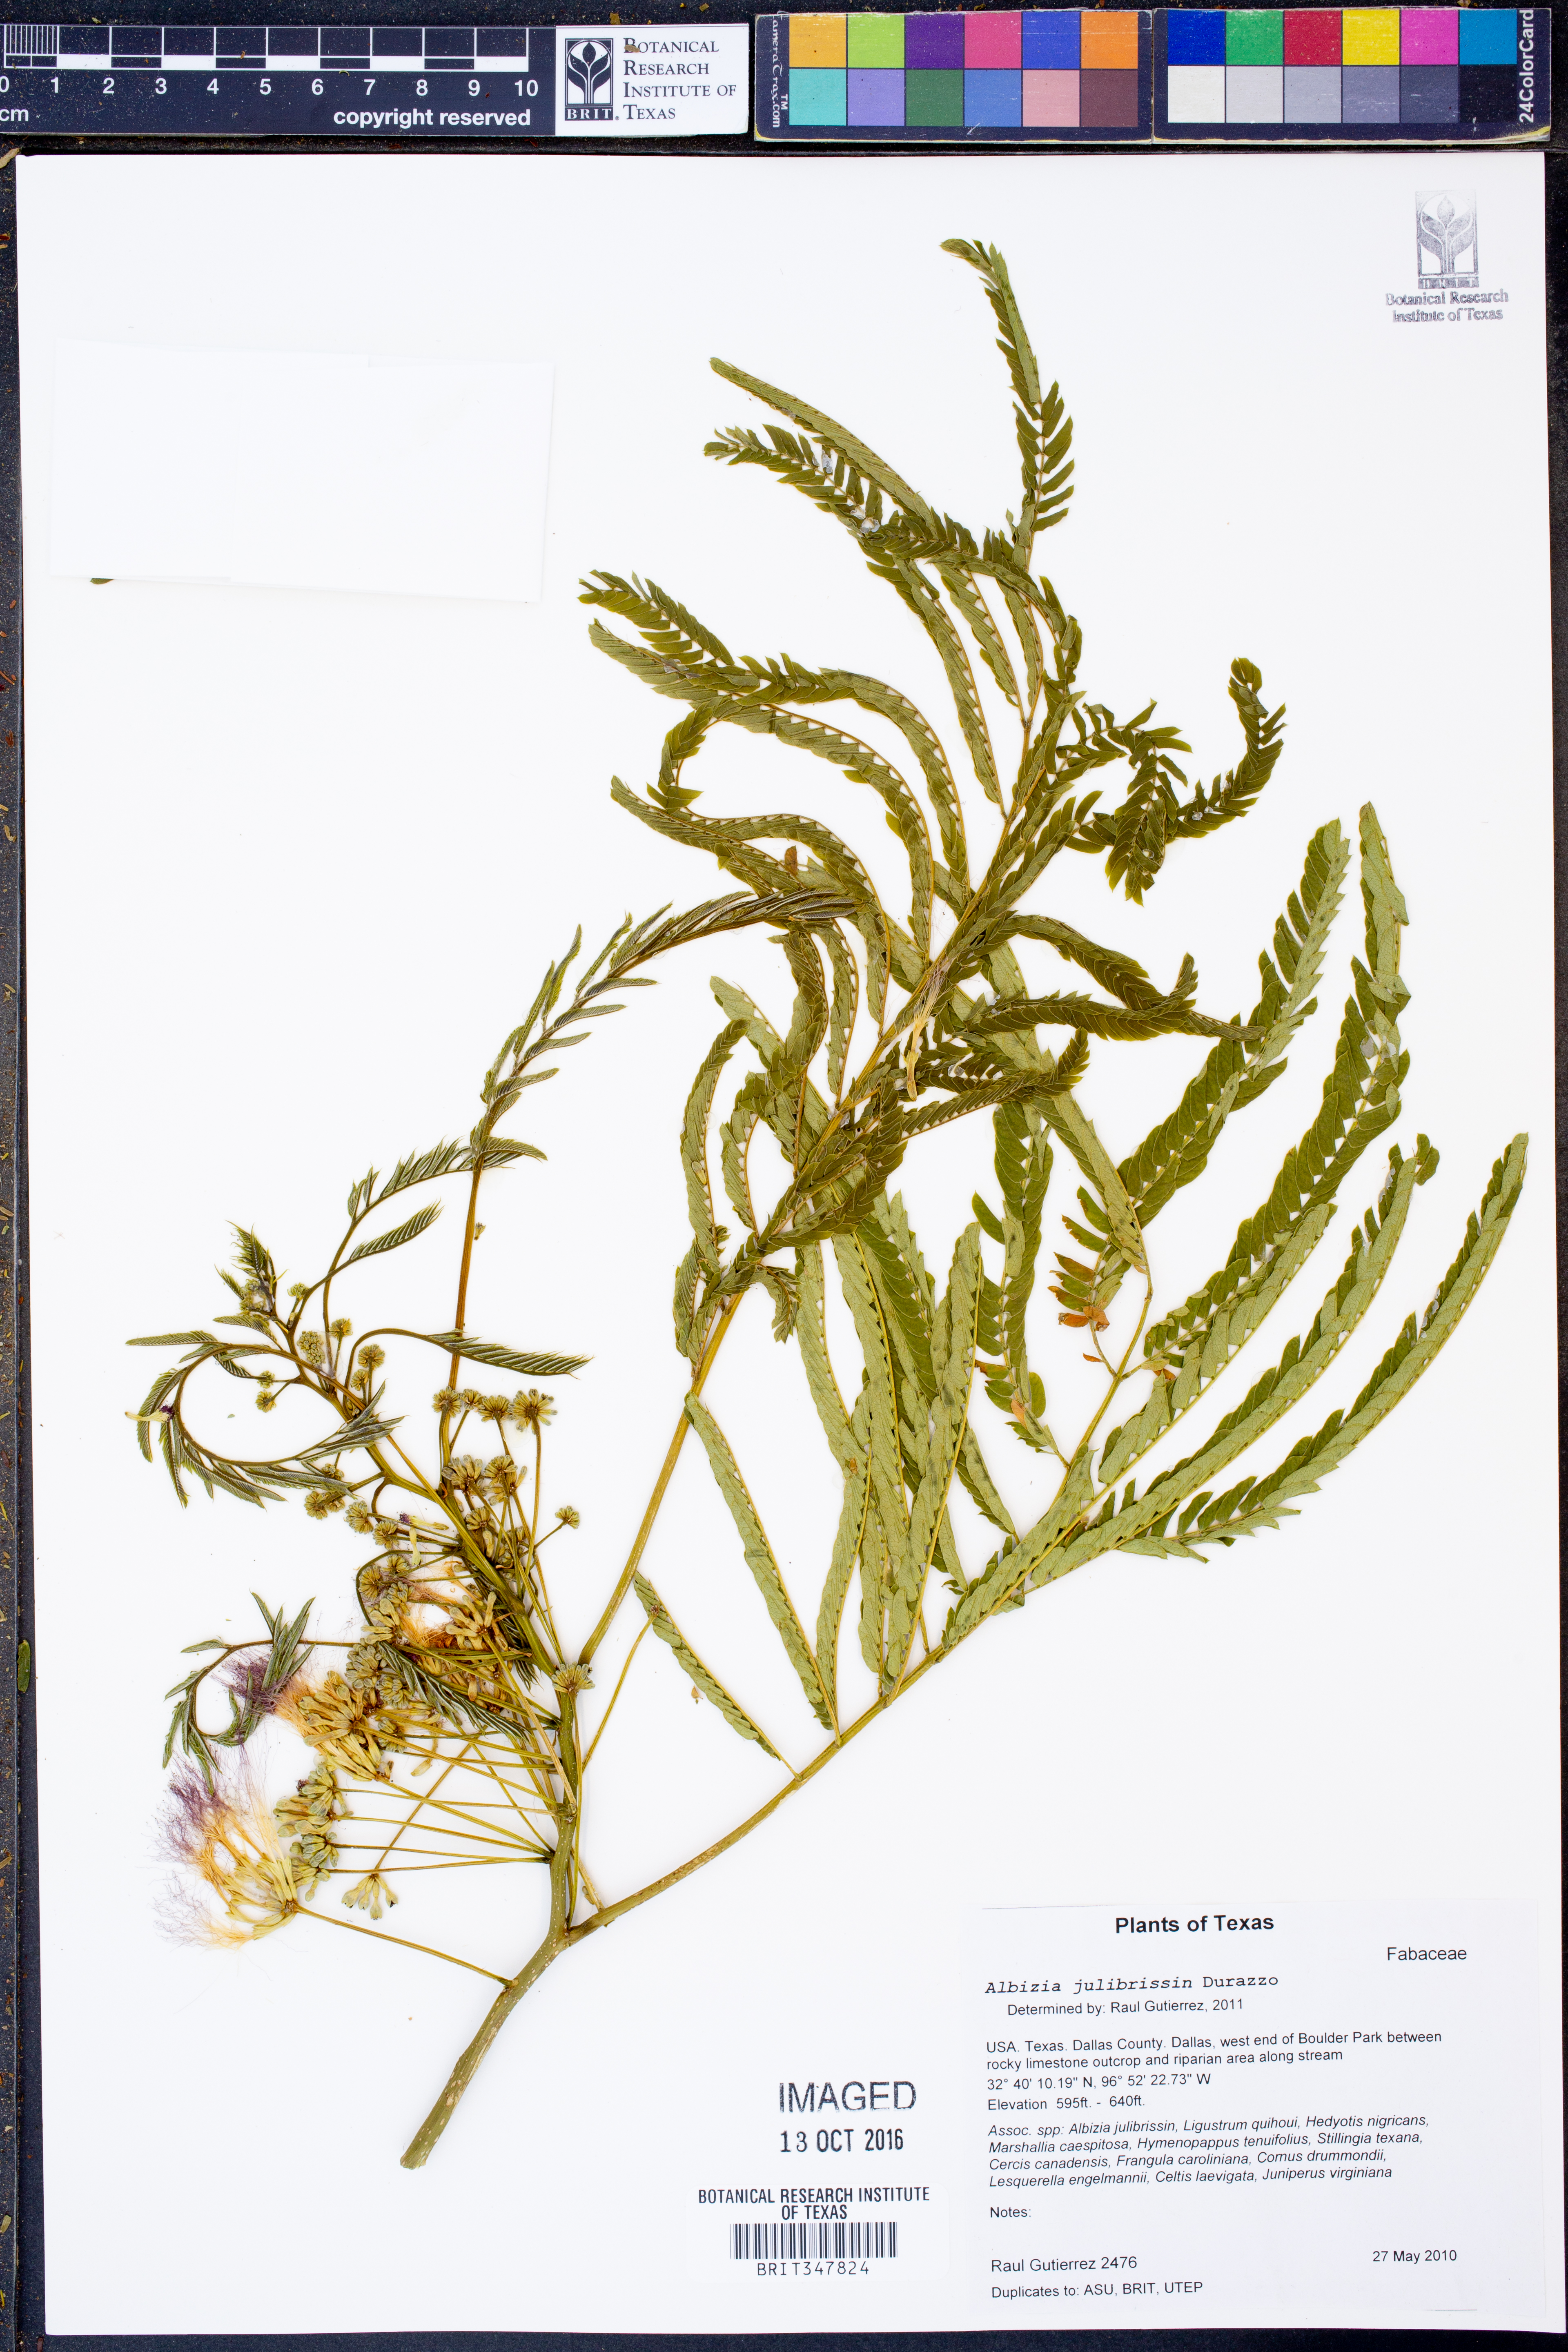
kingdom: Plantae
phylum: Tracheophyta
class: Magnoliopsida
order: Fabales
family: Fabaceae
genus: Albizia
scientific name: Albizia julibrissin
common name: Silktree
